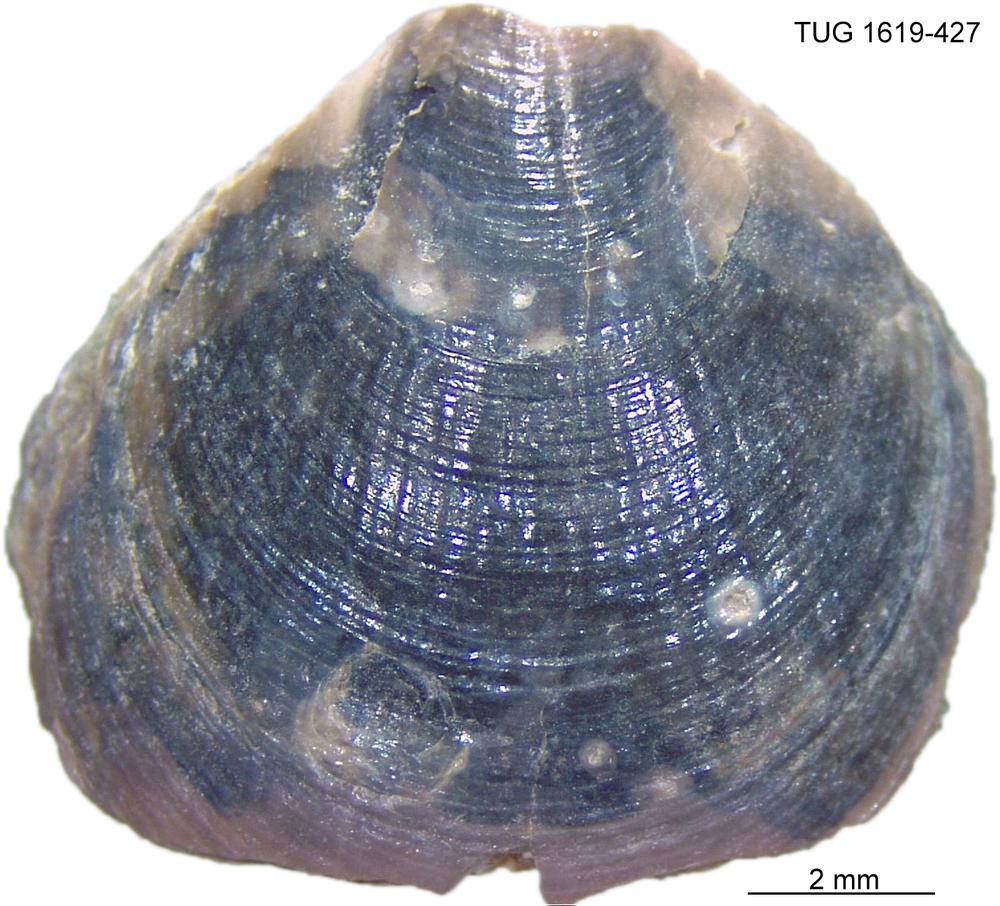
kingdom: Animalia
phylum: Porifera
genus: Ungula
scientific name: Ungula
